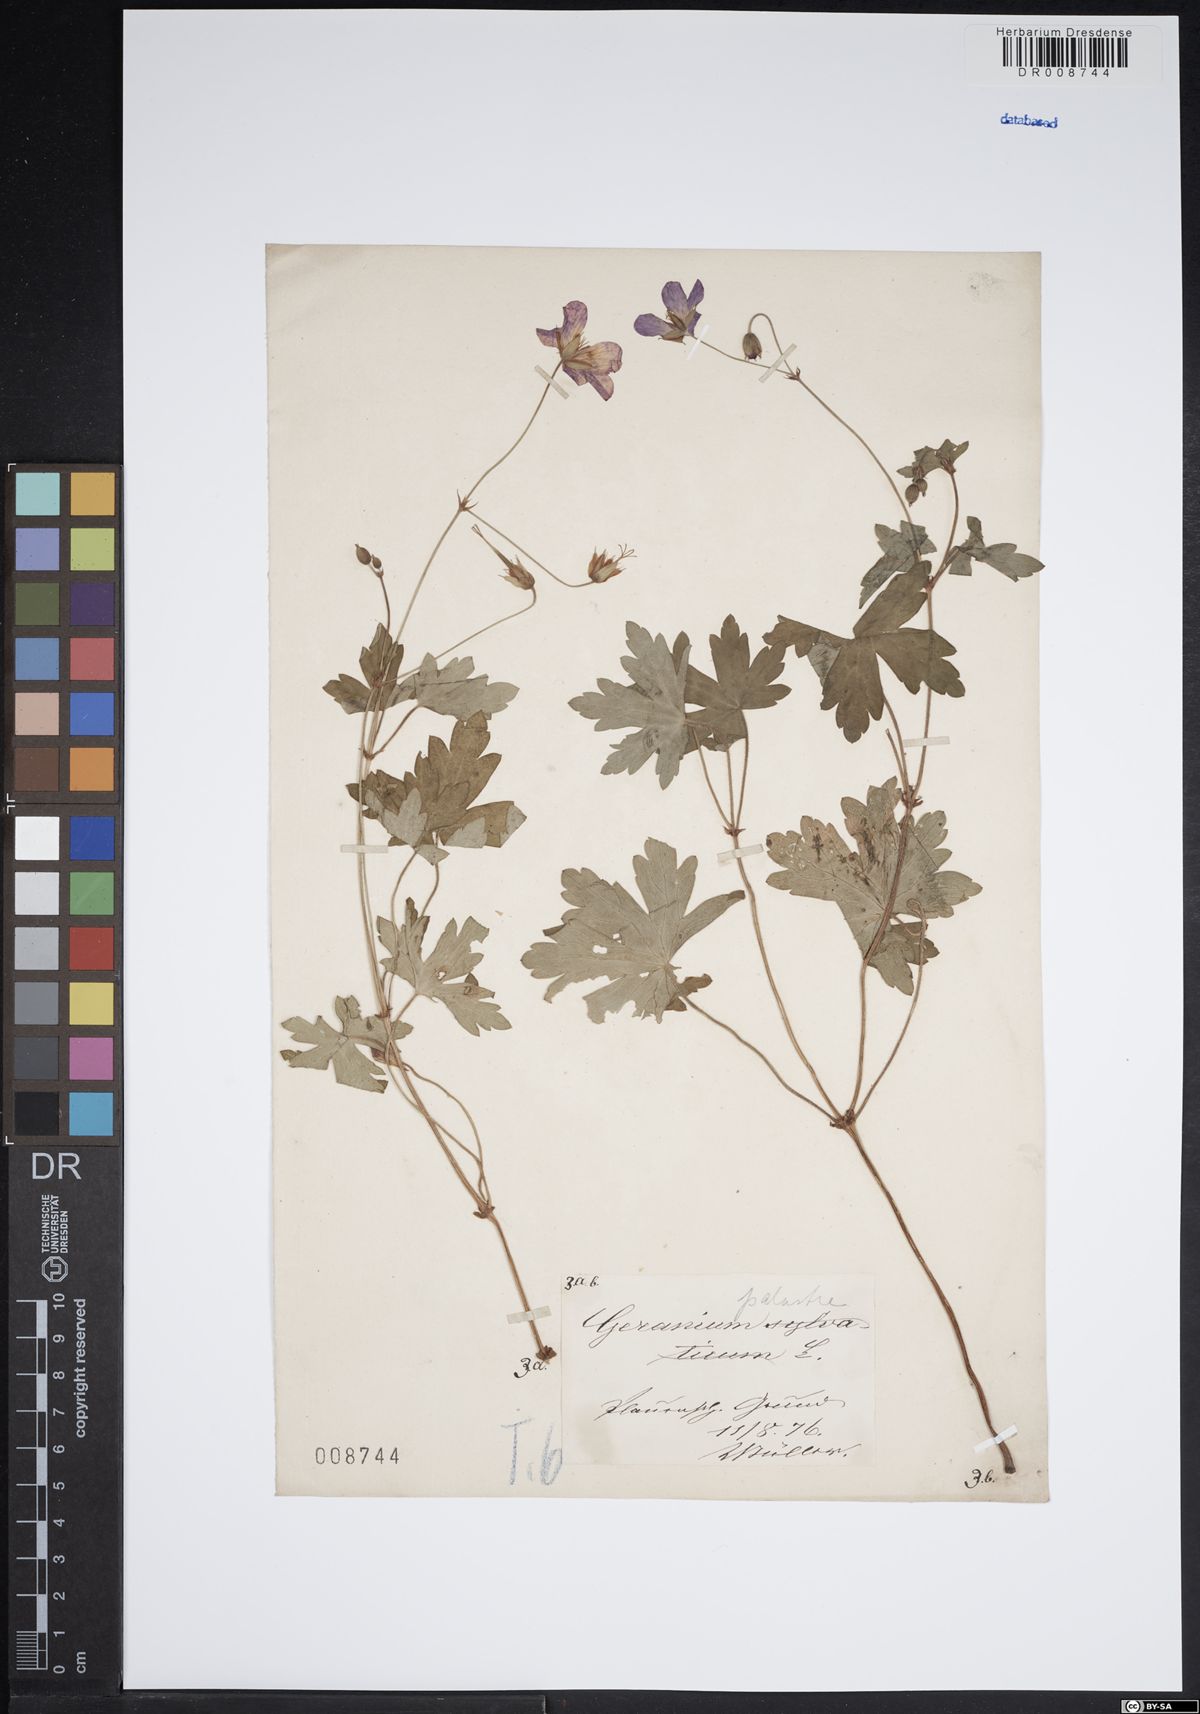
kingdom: Plantae
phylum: Tracheophyta
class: Magnoliopsida
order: Geraniales
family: Geraniaceae
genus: Geranium
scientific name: Geranium palustre
